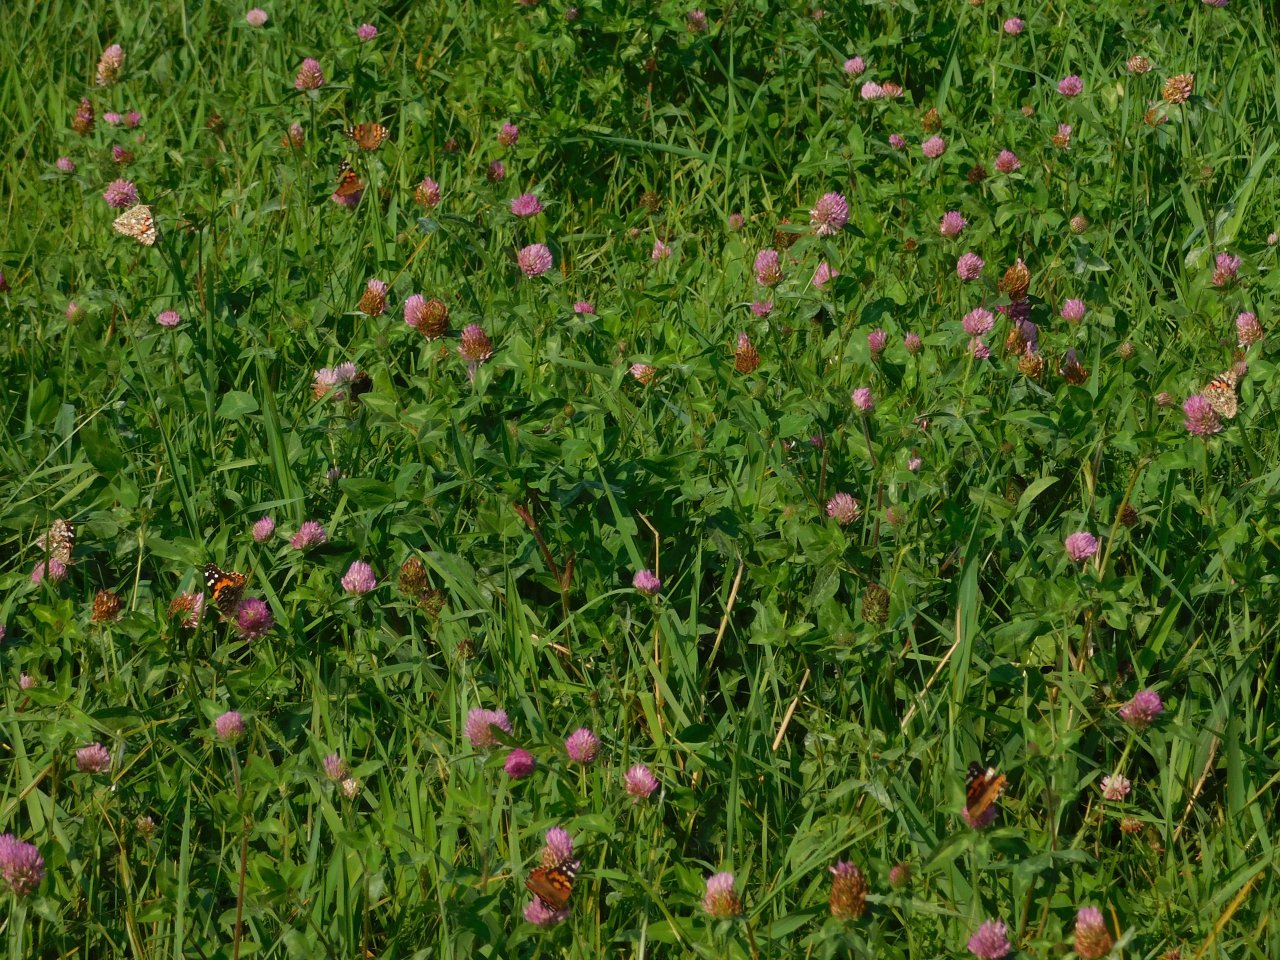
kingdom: Animalia
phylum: Arthropoda
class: Insecta
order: Lepidoptera
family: Nymphalidae
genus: Vanessa
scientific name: Vanessa cardui
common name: Painted Lady
